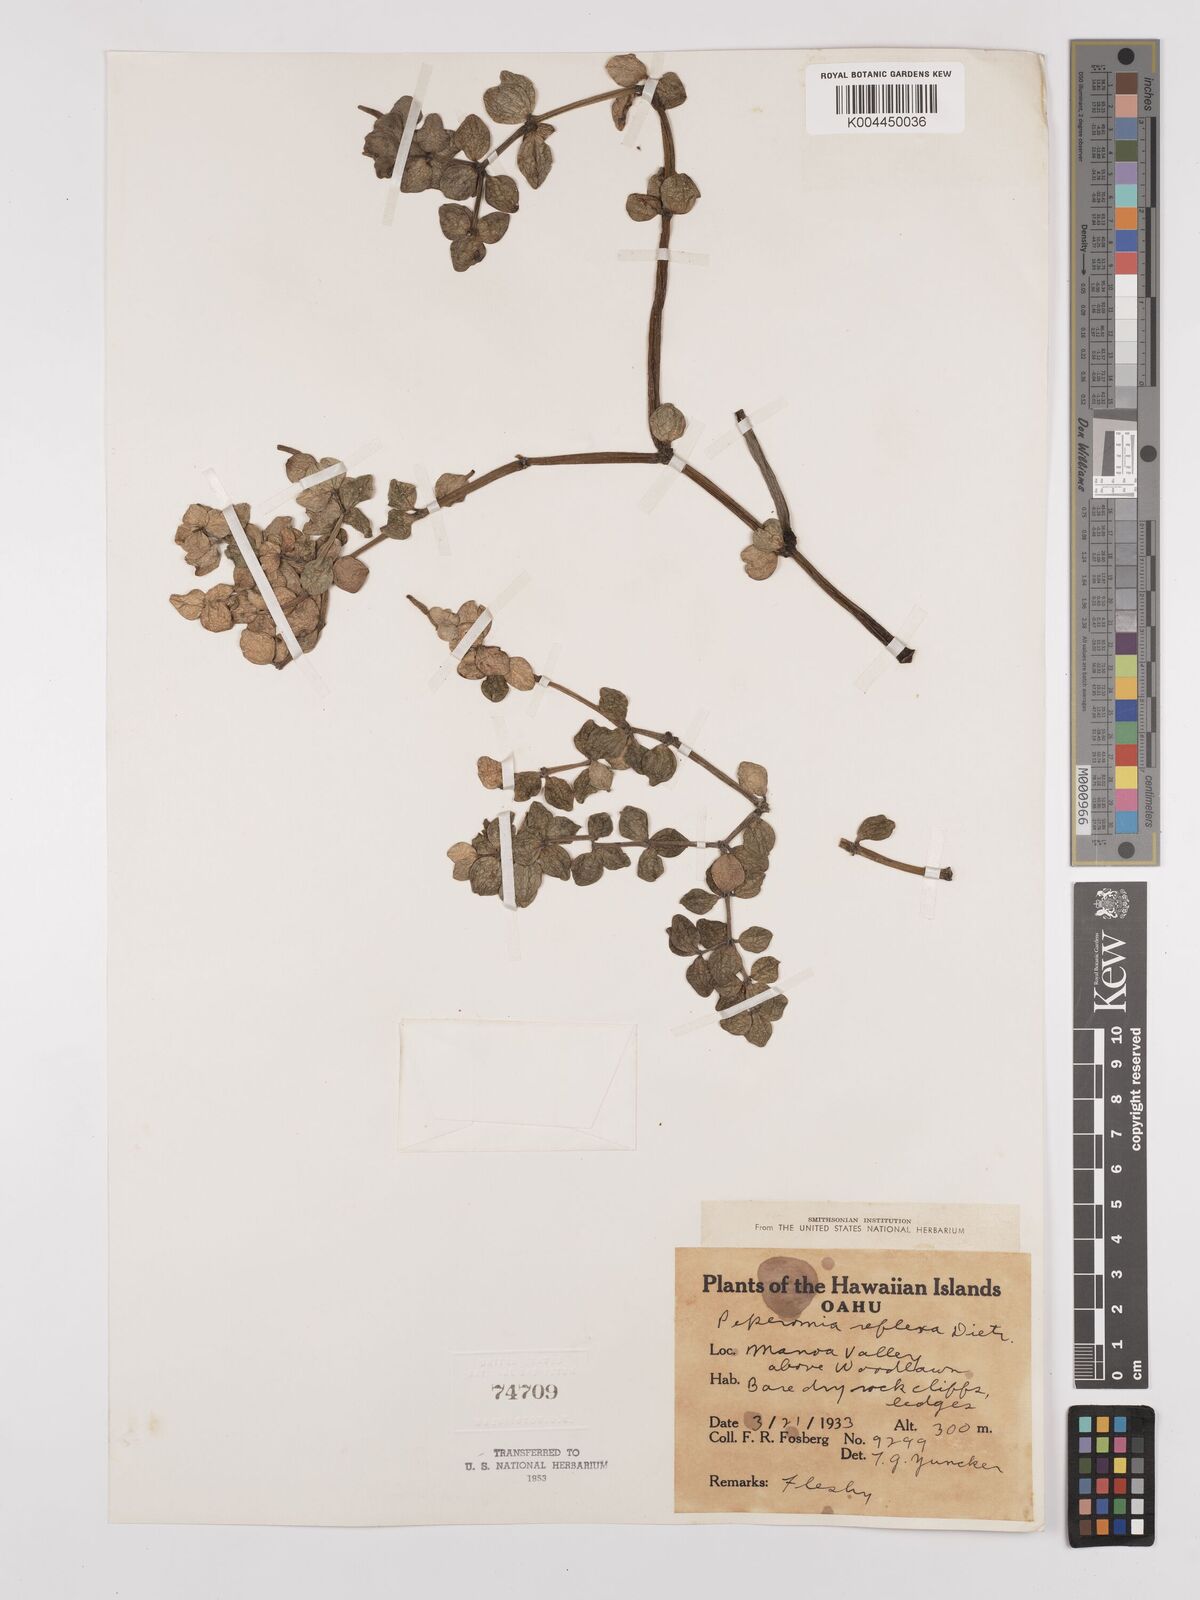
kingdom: Plantae
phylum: Tracheophyta
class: Magnoliopsida
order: Piperales
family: Piperaceae
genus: Peperomia
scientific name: Peperomia tetraphylla
